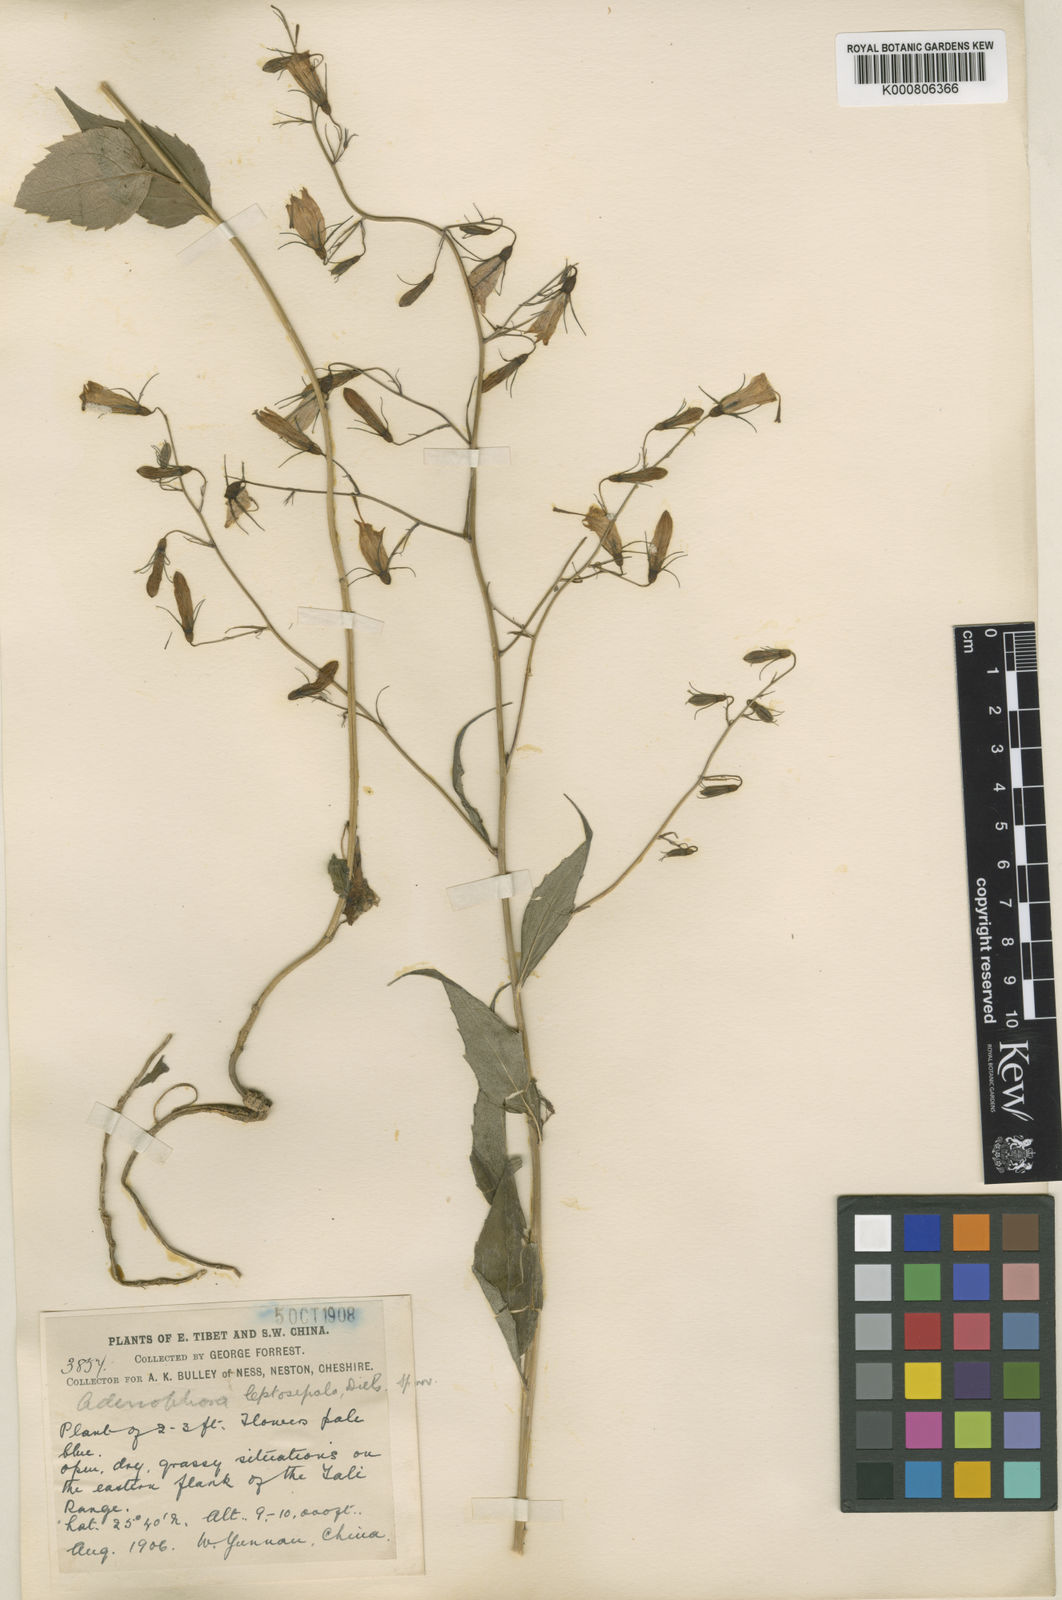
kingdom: Plantae
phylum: Tracheophyta
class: Magnoliopsida
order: Asterales
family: Campanulaceae
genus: Adenophora
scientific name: Adenophora capillaris
